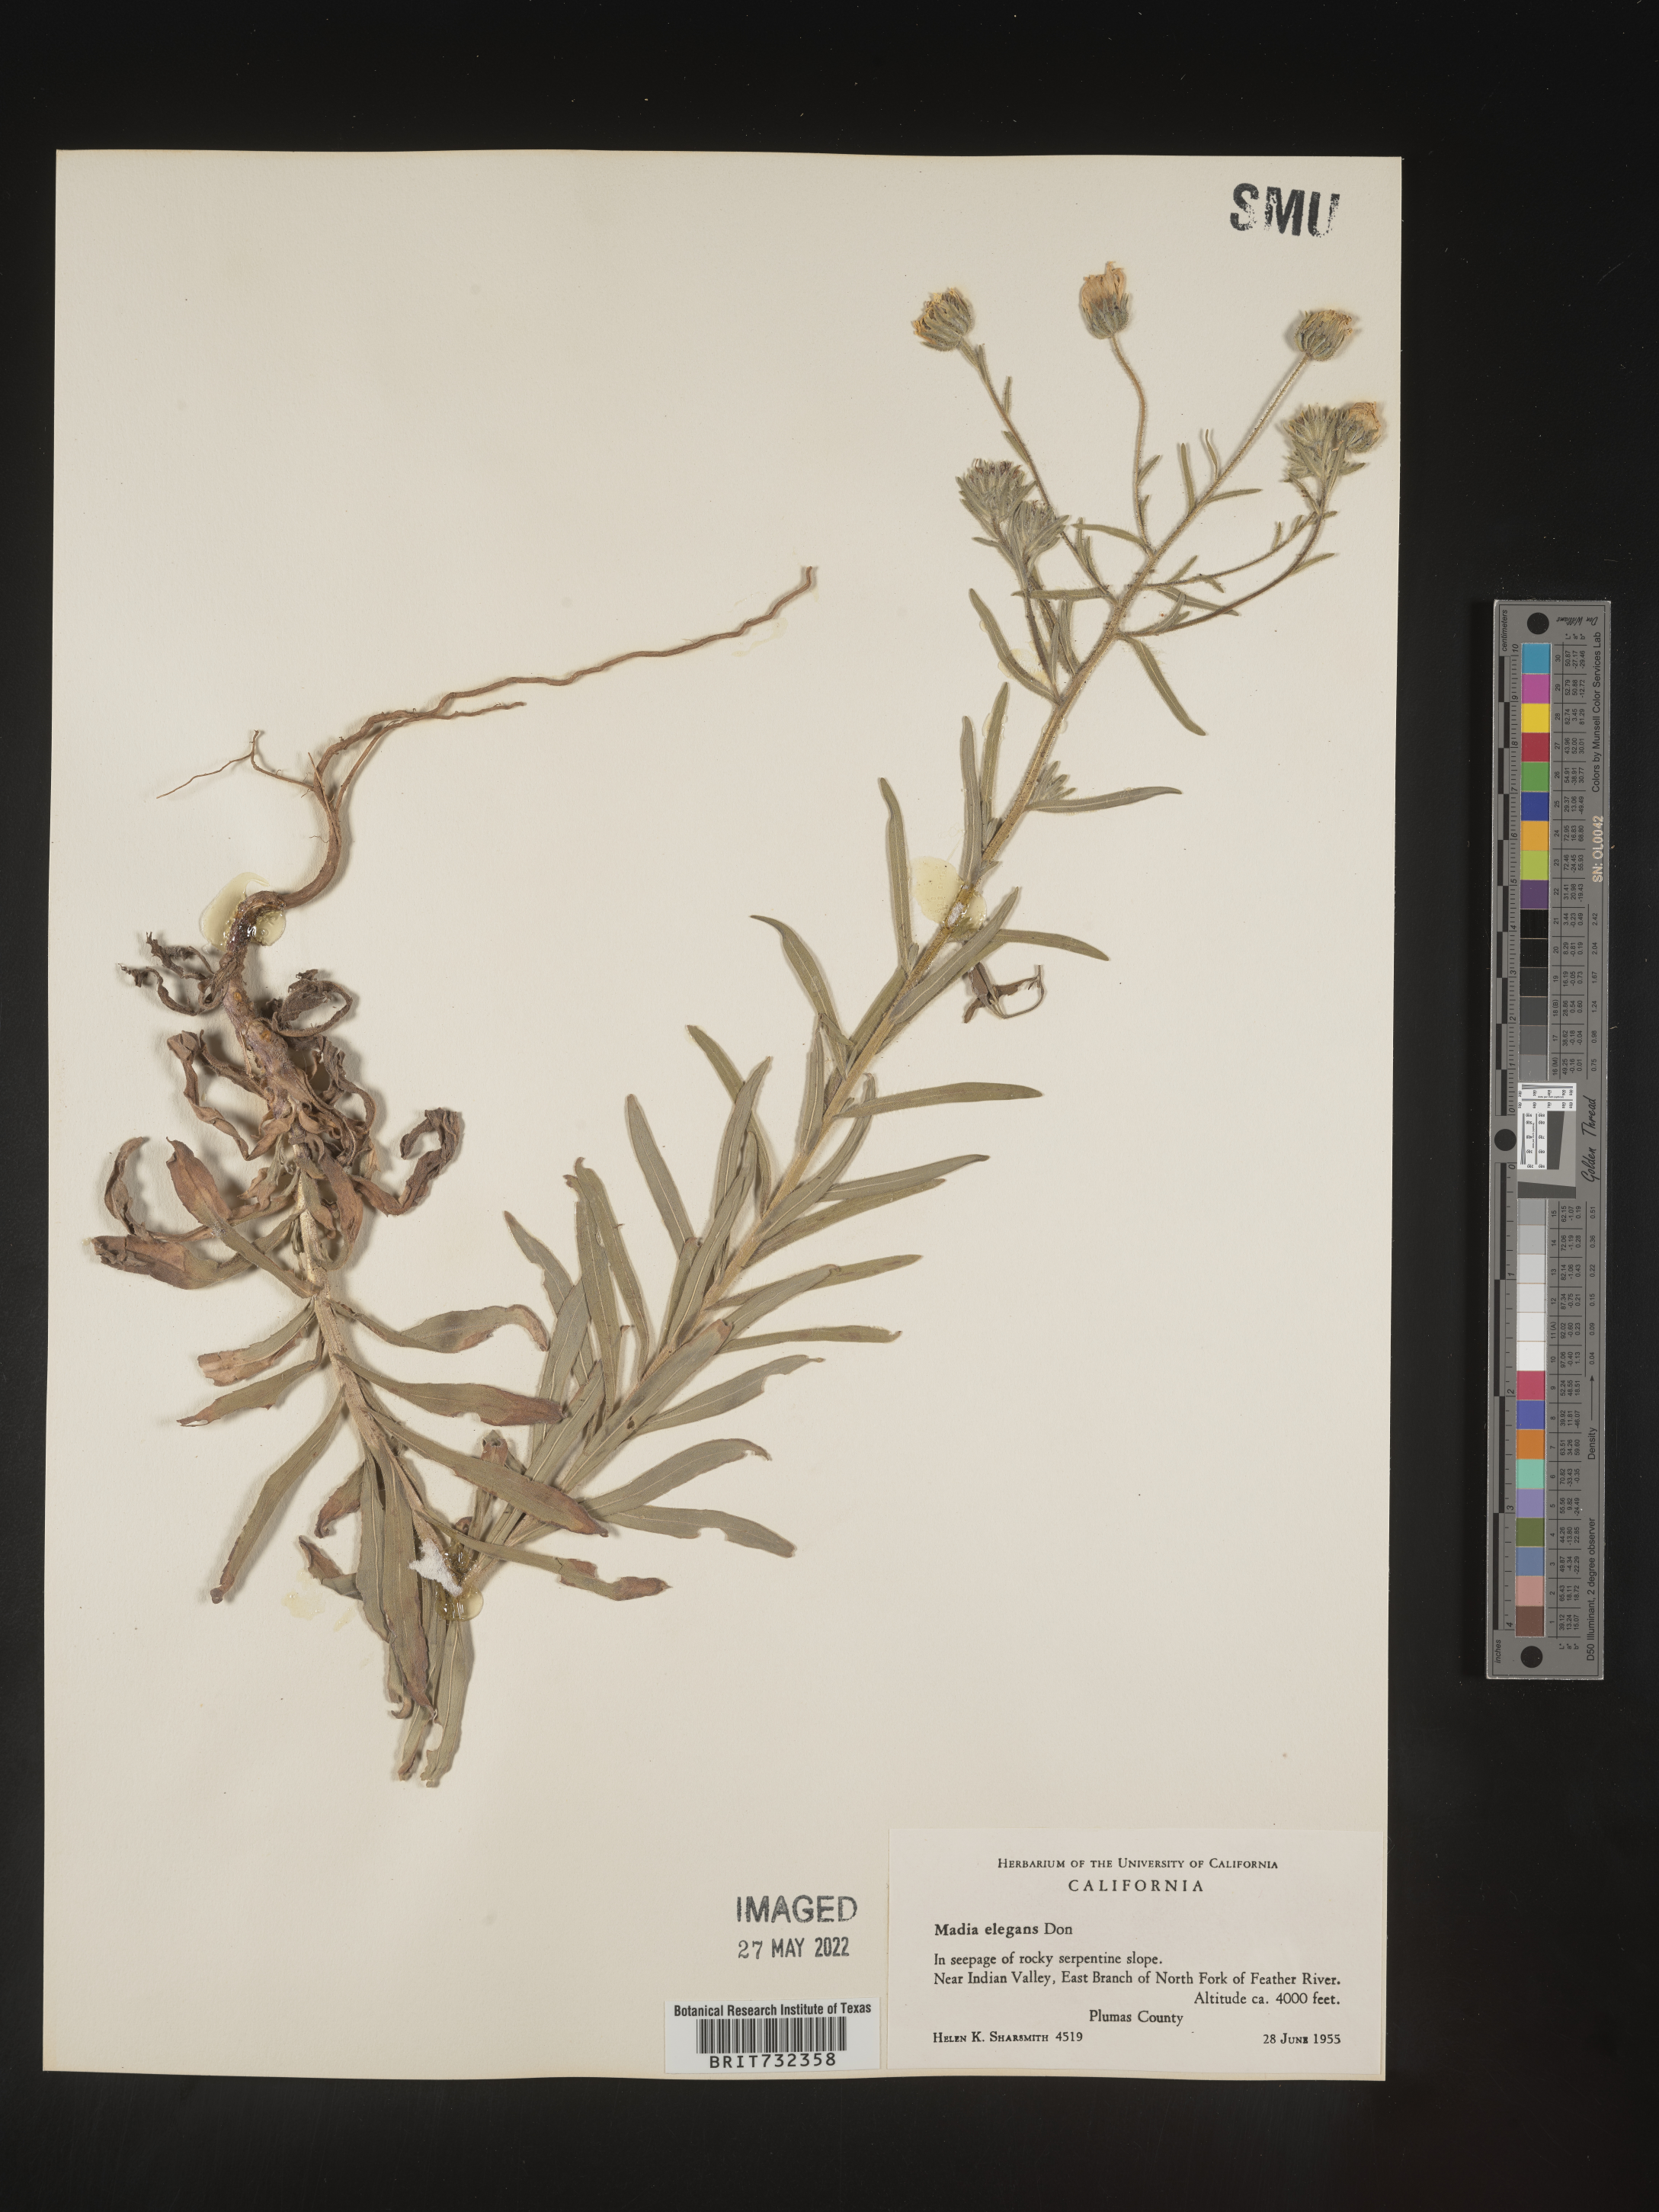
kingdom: Plantae
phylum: Tracheophyta
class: Magnoliopsida
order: Asterales
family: Asteraceae
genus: Madia
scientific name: Madia
